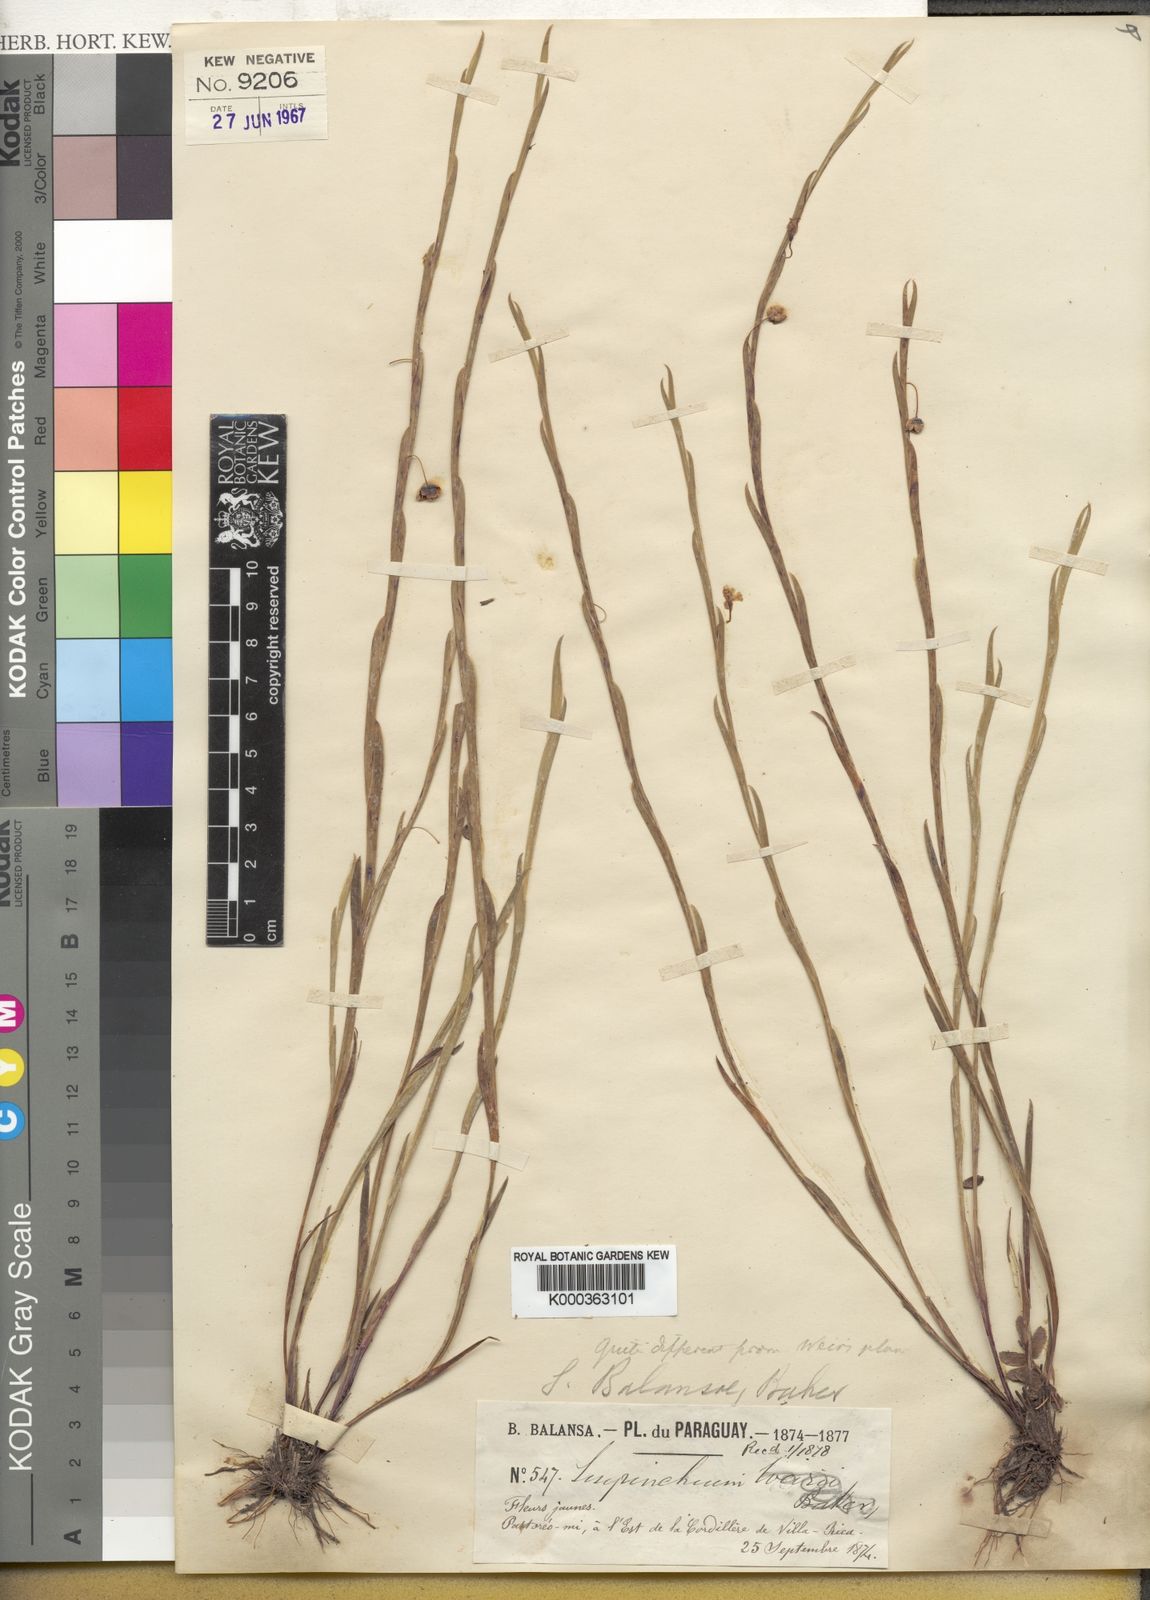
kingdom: Plantae
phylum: Tracheophyta
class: Liliopsida
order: Asparagales
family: Iridaceae
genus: Sisyrinchium
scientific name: Sisyrinchium balansae
